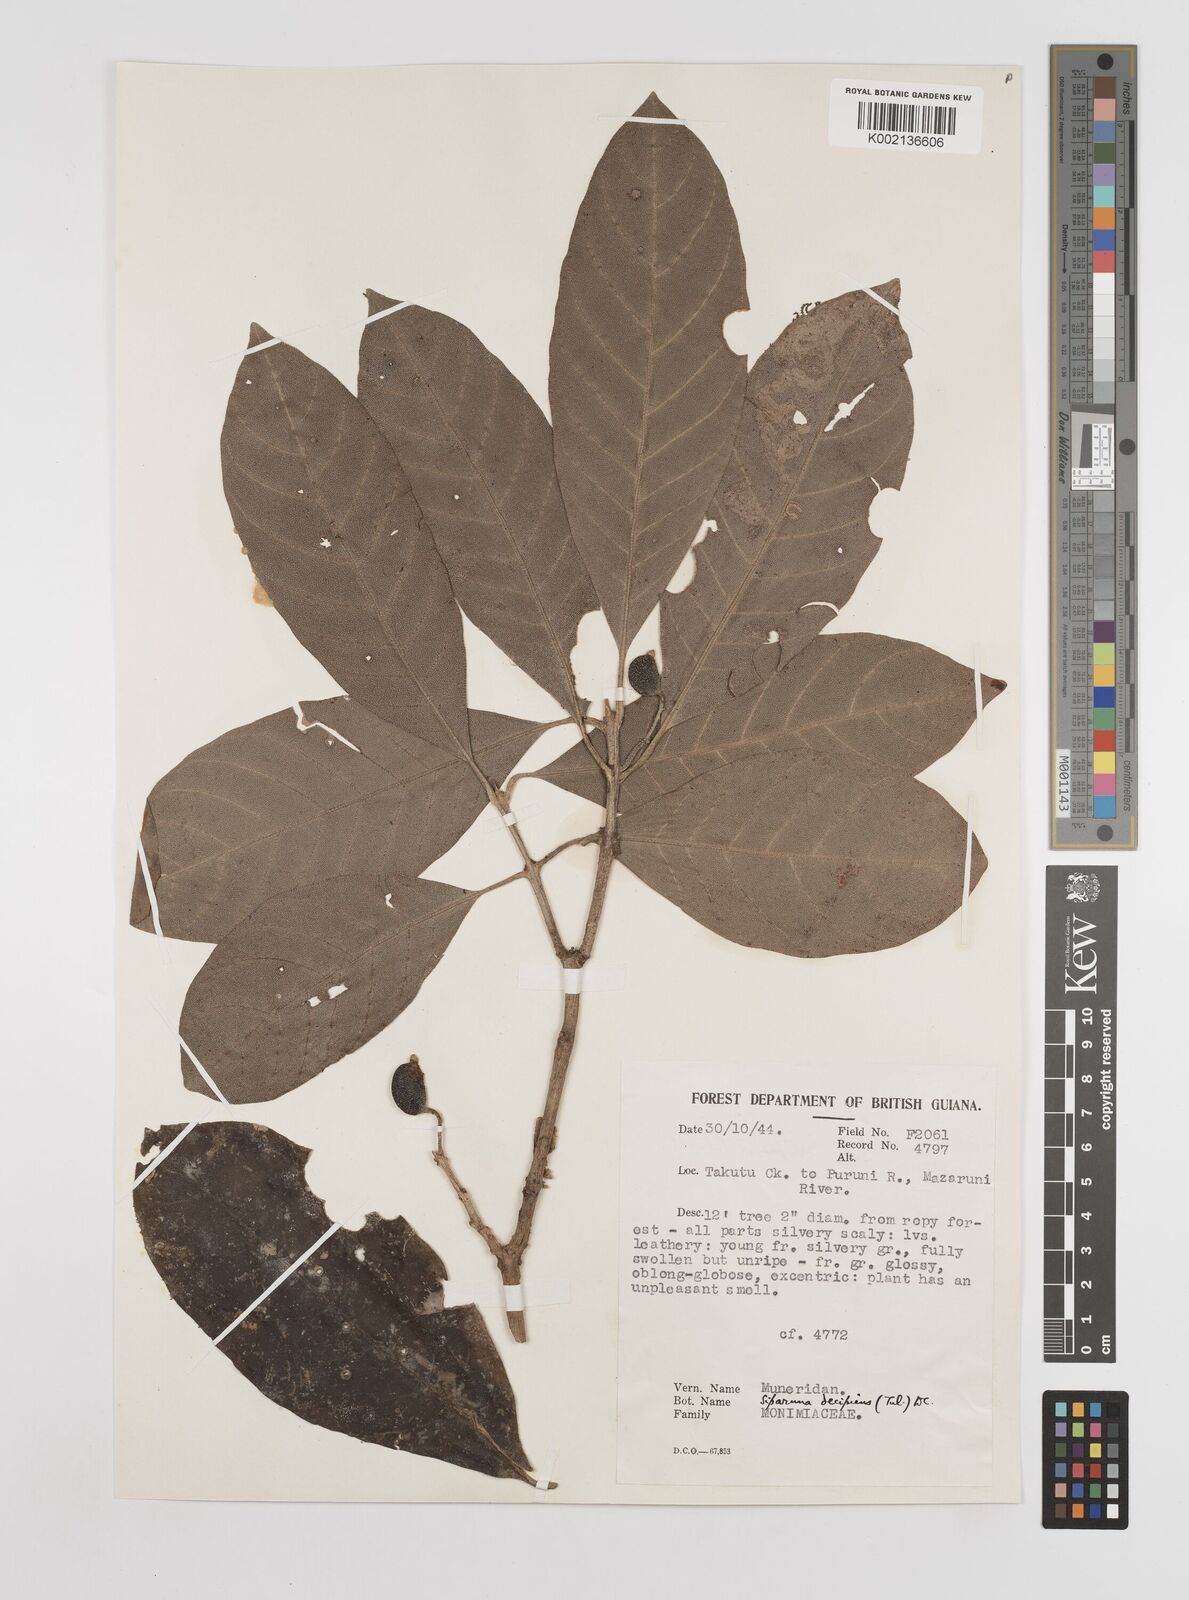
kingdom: Plantae
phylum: Tracheophyta
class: Magnoliopsida
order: Laurales
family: Siparunaceae
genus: Siparuna
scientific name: Siparuna decipiens
